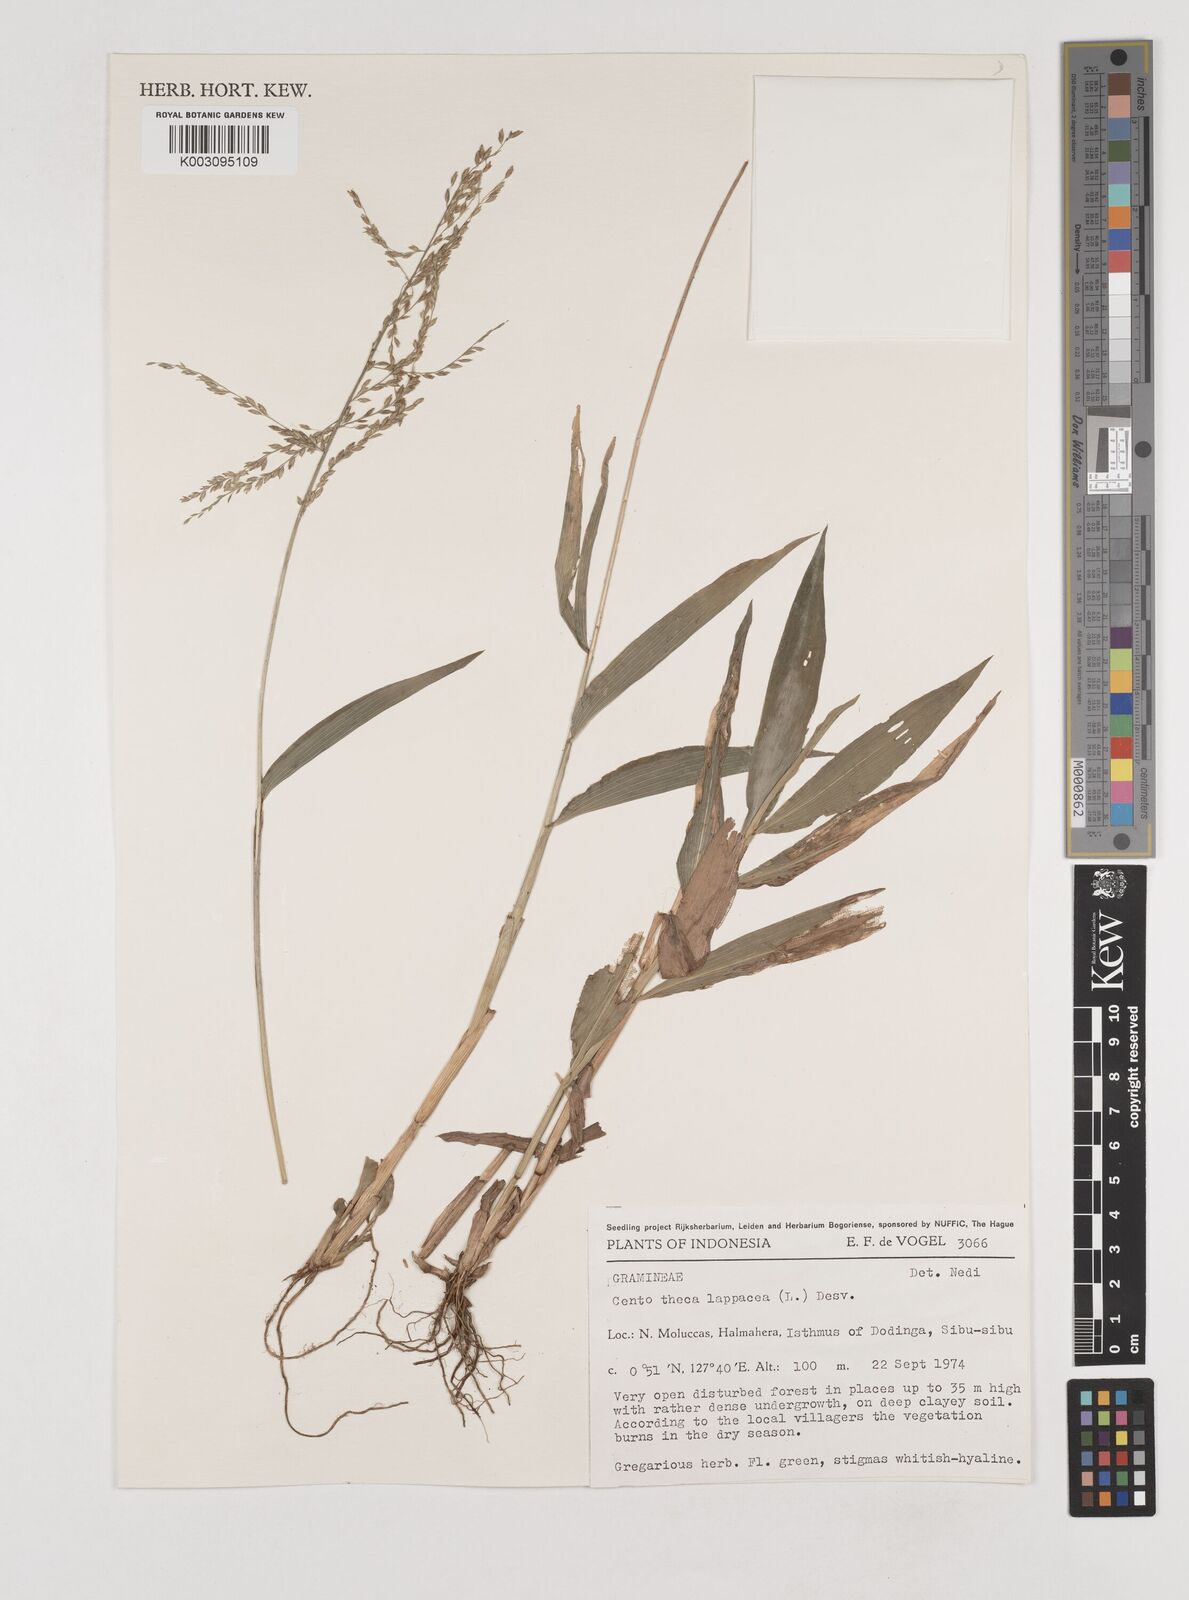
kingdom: Plantae
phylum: Tracheophyta
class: Liliopsida
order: Poales
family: Poaceae
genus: Centotheca
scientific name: Centotheca lappacea
